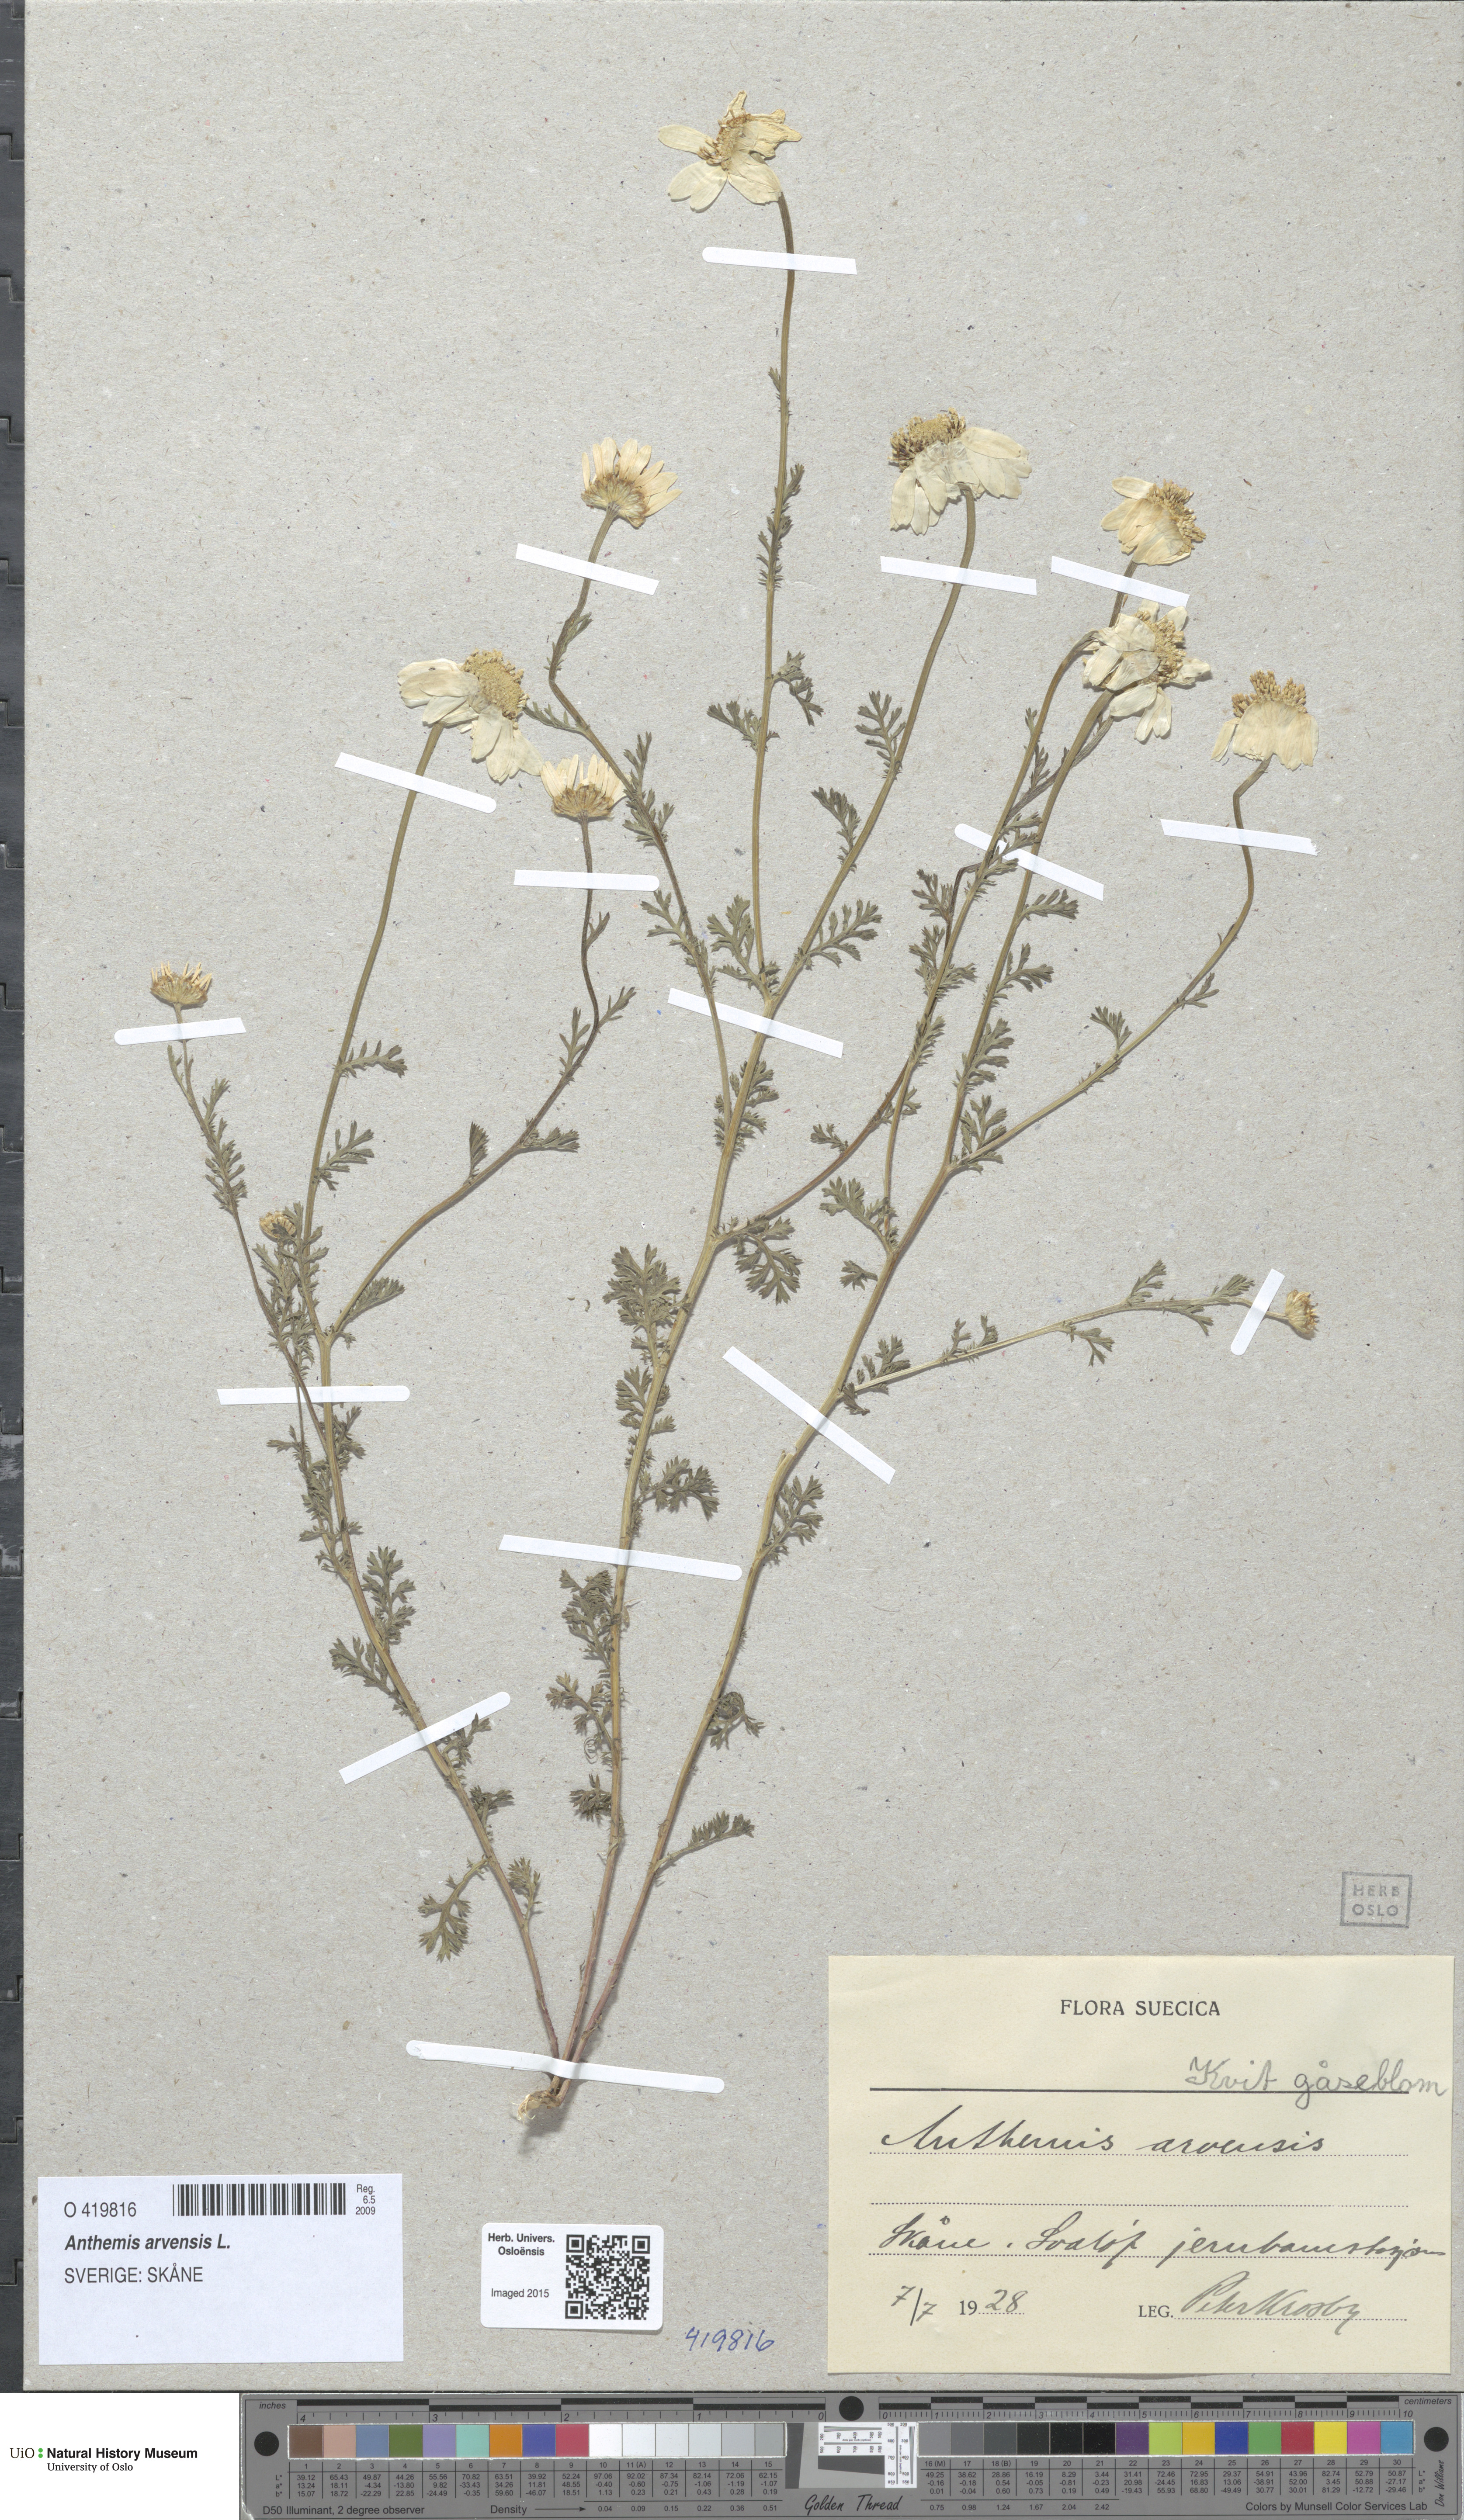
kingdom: Plantae
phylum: Tracheophyta
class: Magnoliopsida
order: Asterales
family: Asteraceae
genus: Anthemis
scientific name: Anthemis arvensis
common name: Corn chamomile
